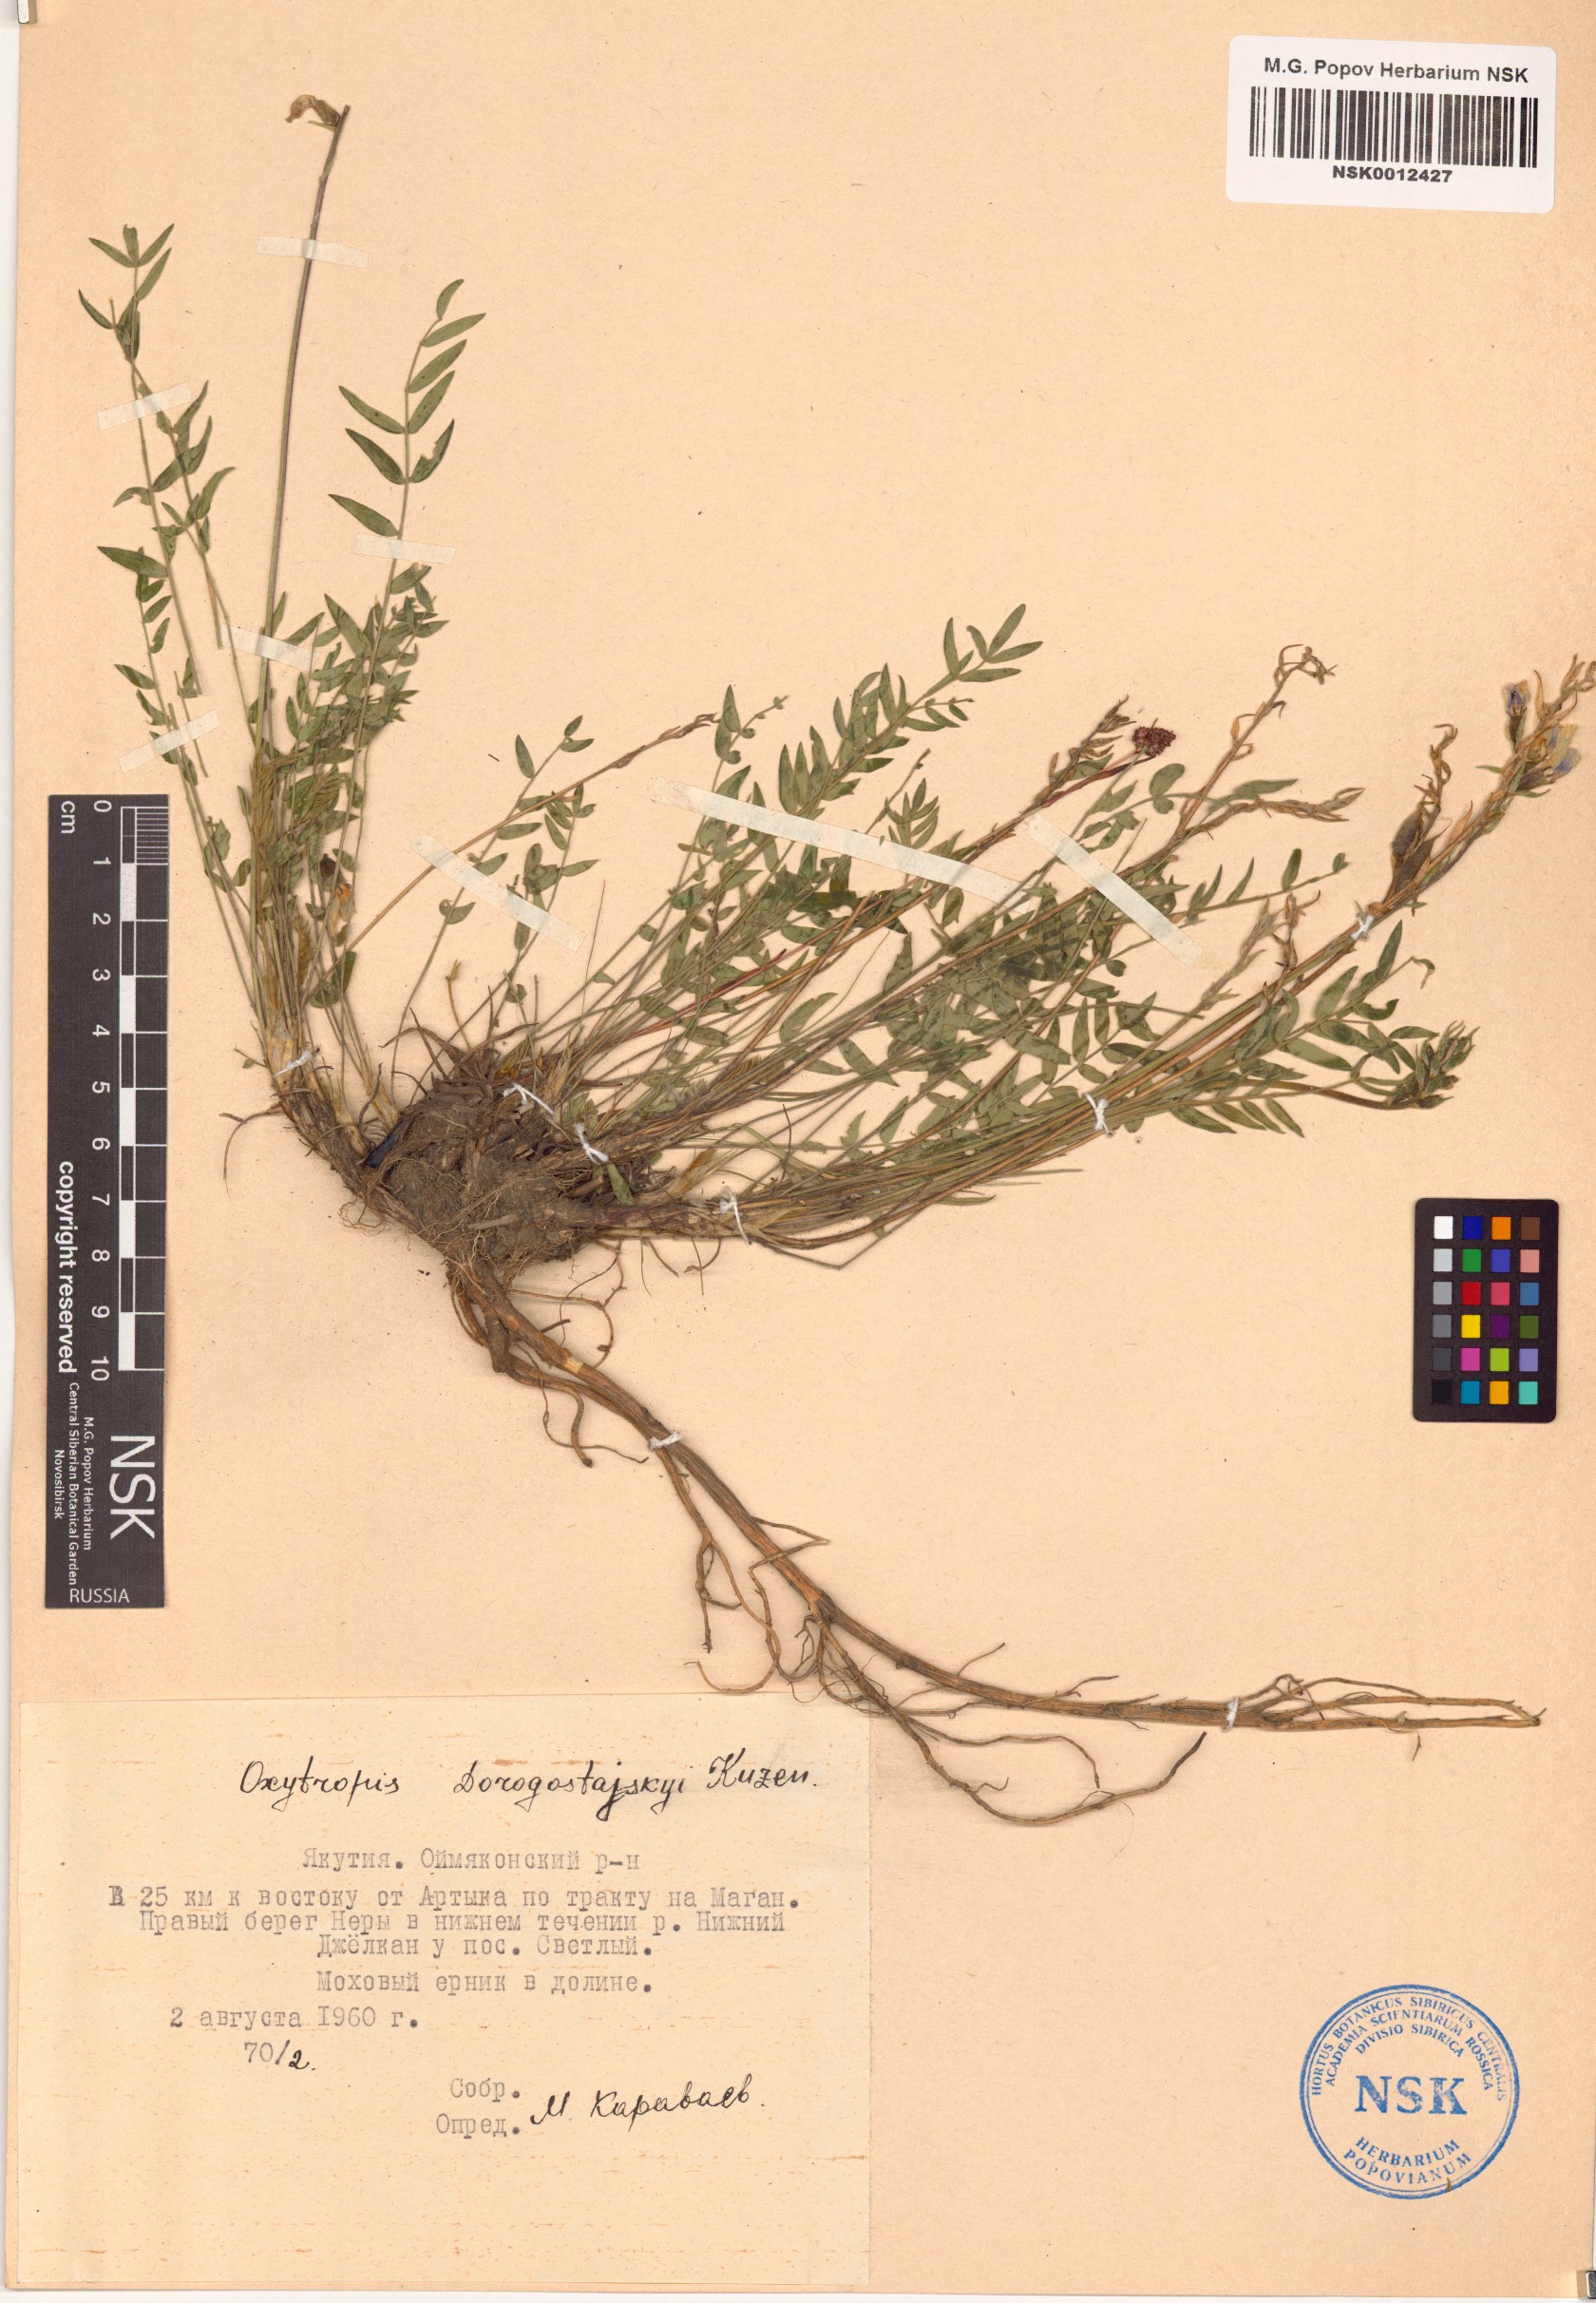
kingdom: Plantae
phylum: Tracheophyta
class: Magnoliopsida
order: Fabales
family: Fabaceae
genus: Oxytropis
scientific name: Oxytropis dorogostajskyi
